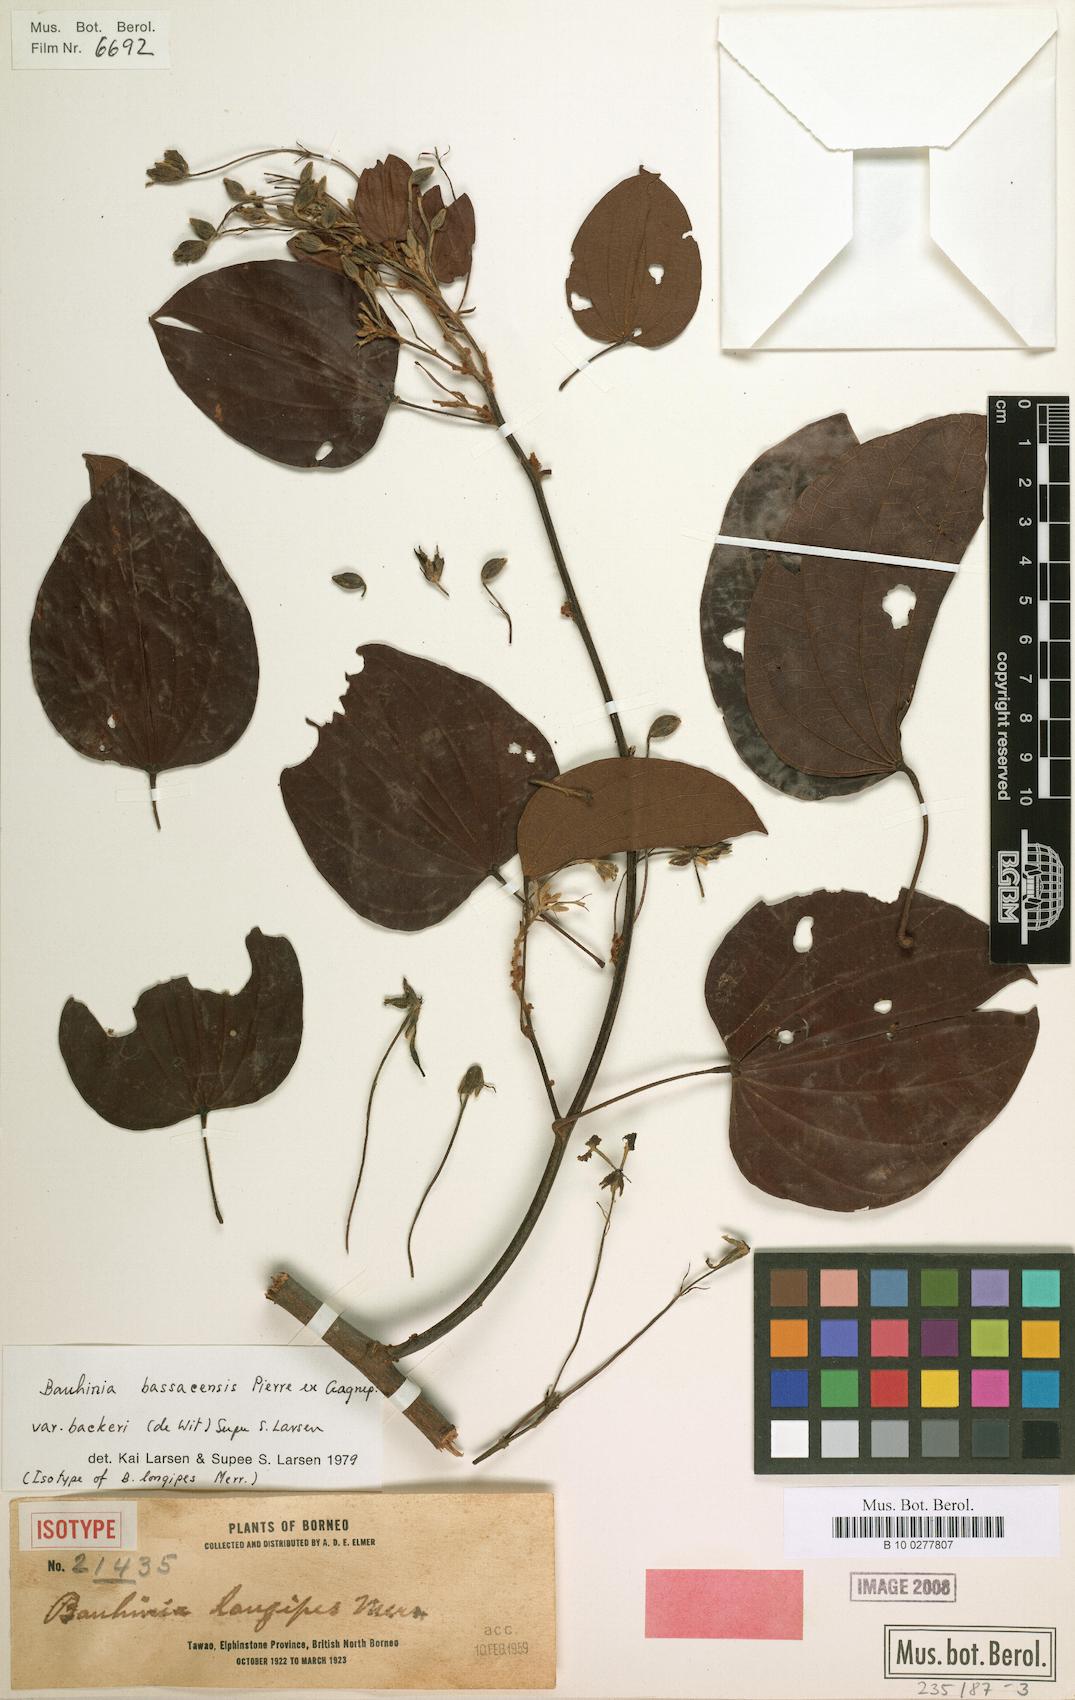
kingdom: Plantae
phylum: Tracheophyta
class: Magnoliopsida
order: Fabales
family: Fabaceae
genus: Phanera
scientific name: Phanera bassacensis
